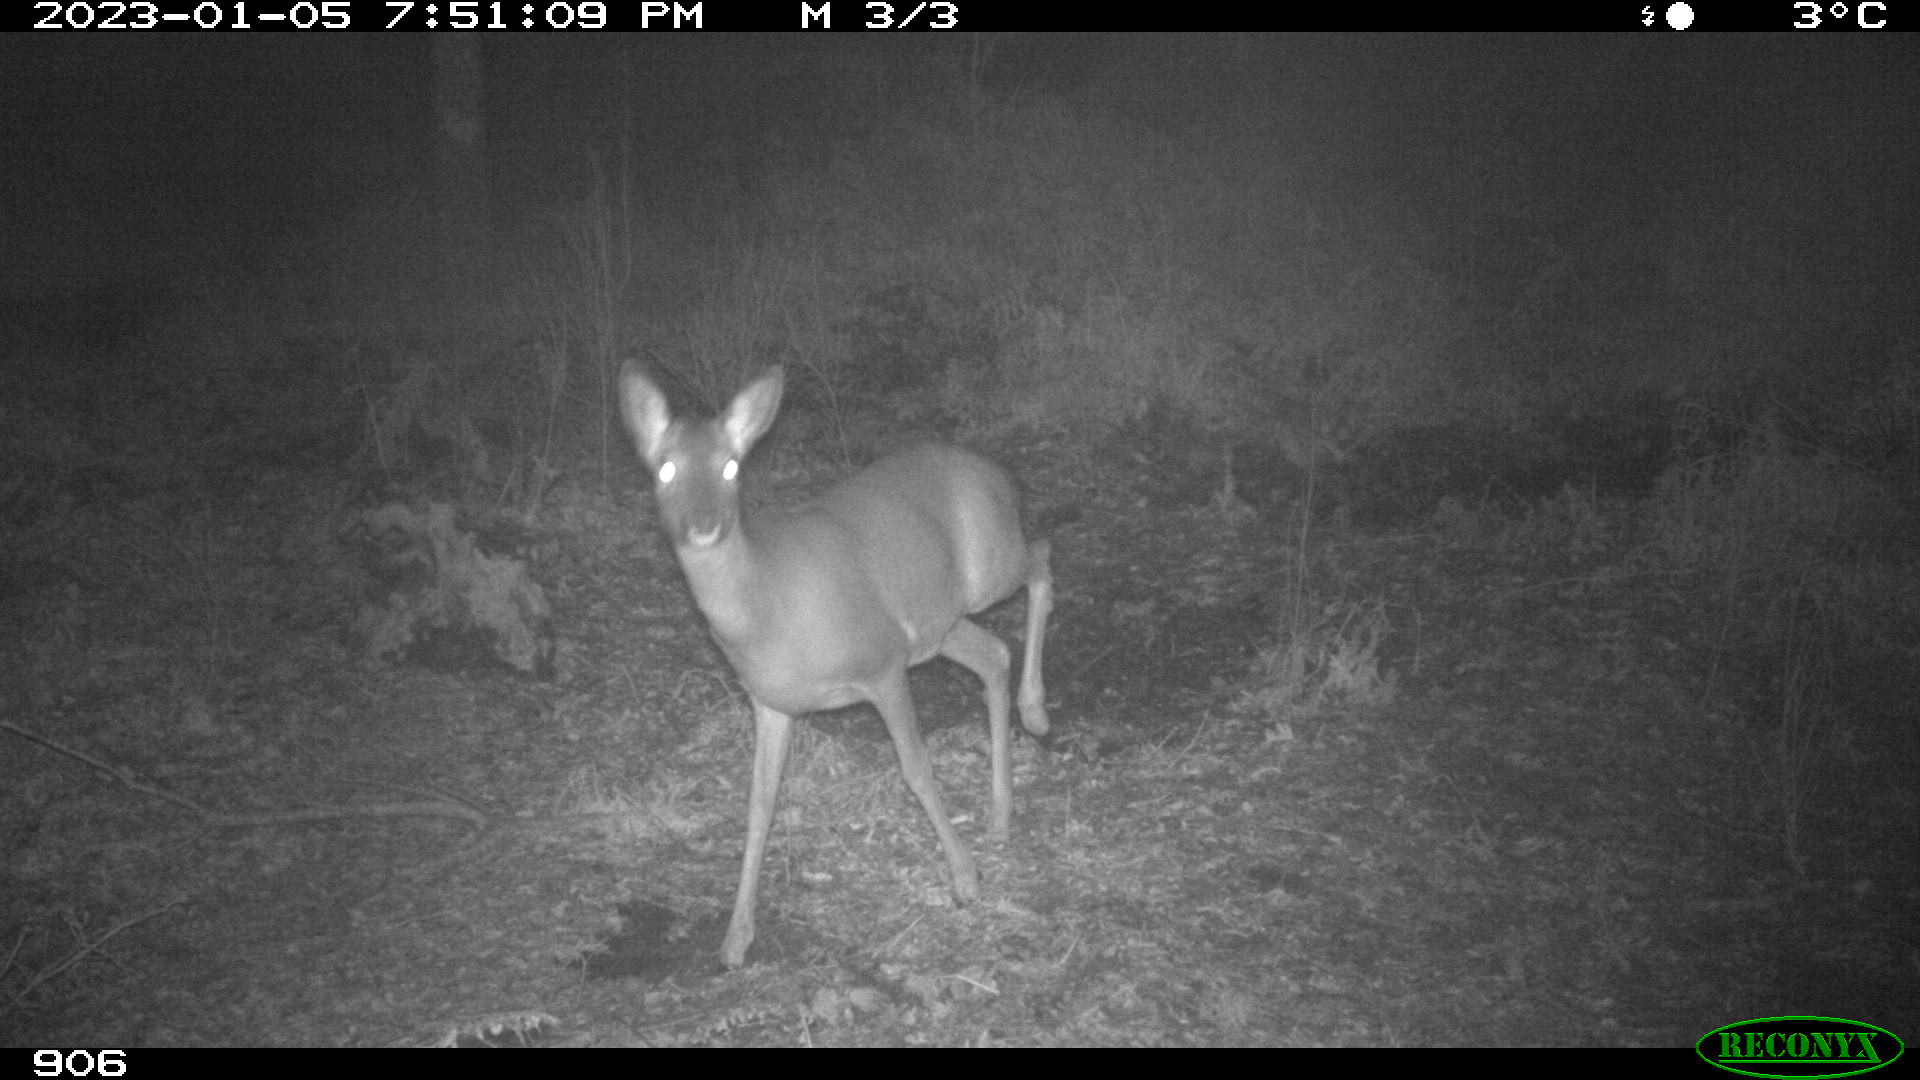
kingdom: Animalia
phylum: Chordata
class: Mammalia
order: Artiodactyla
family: Cervidae
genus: Capreolus
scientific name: Capreolus capreolus
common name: Western roe deer
